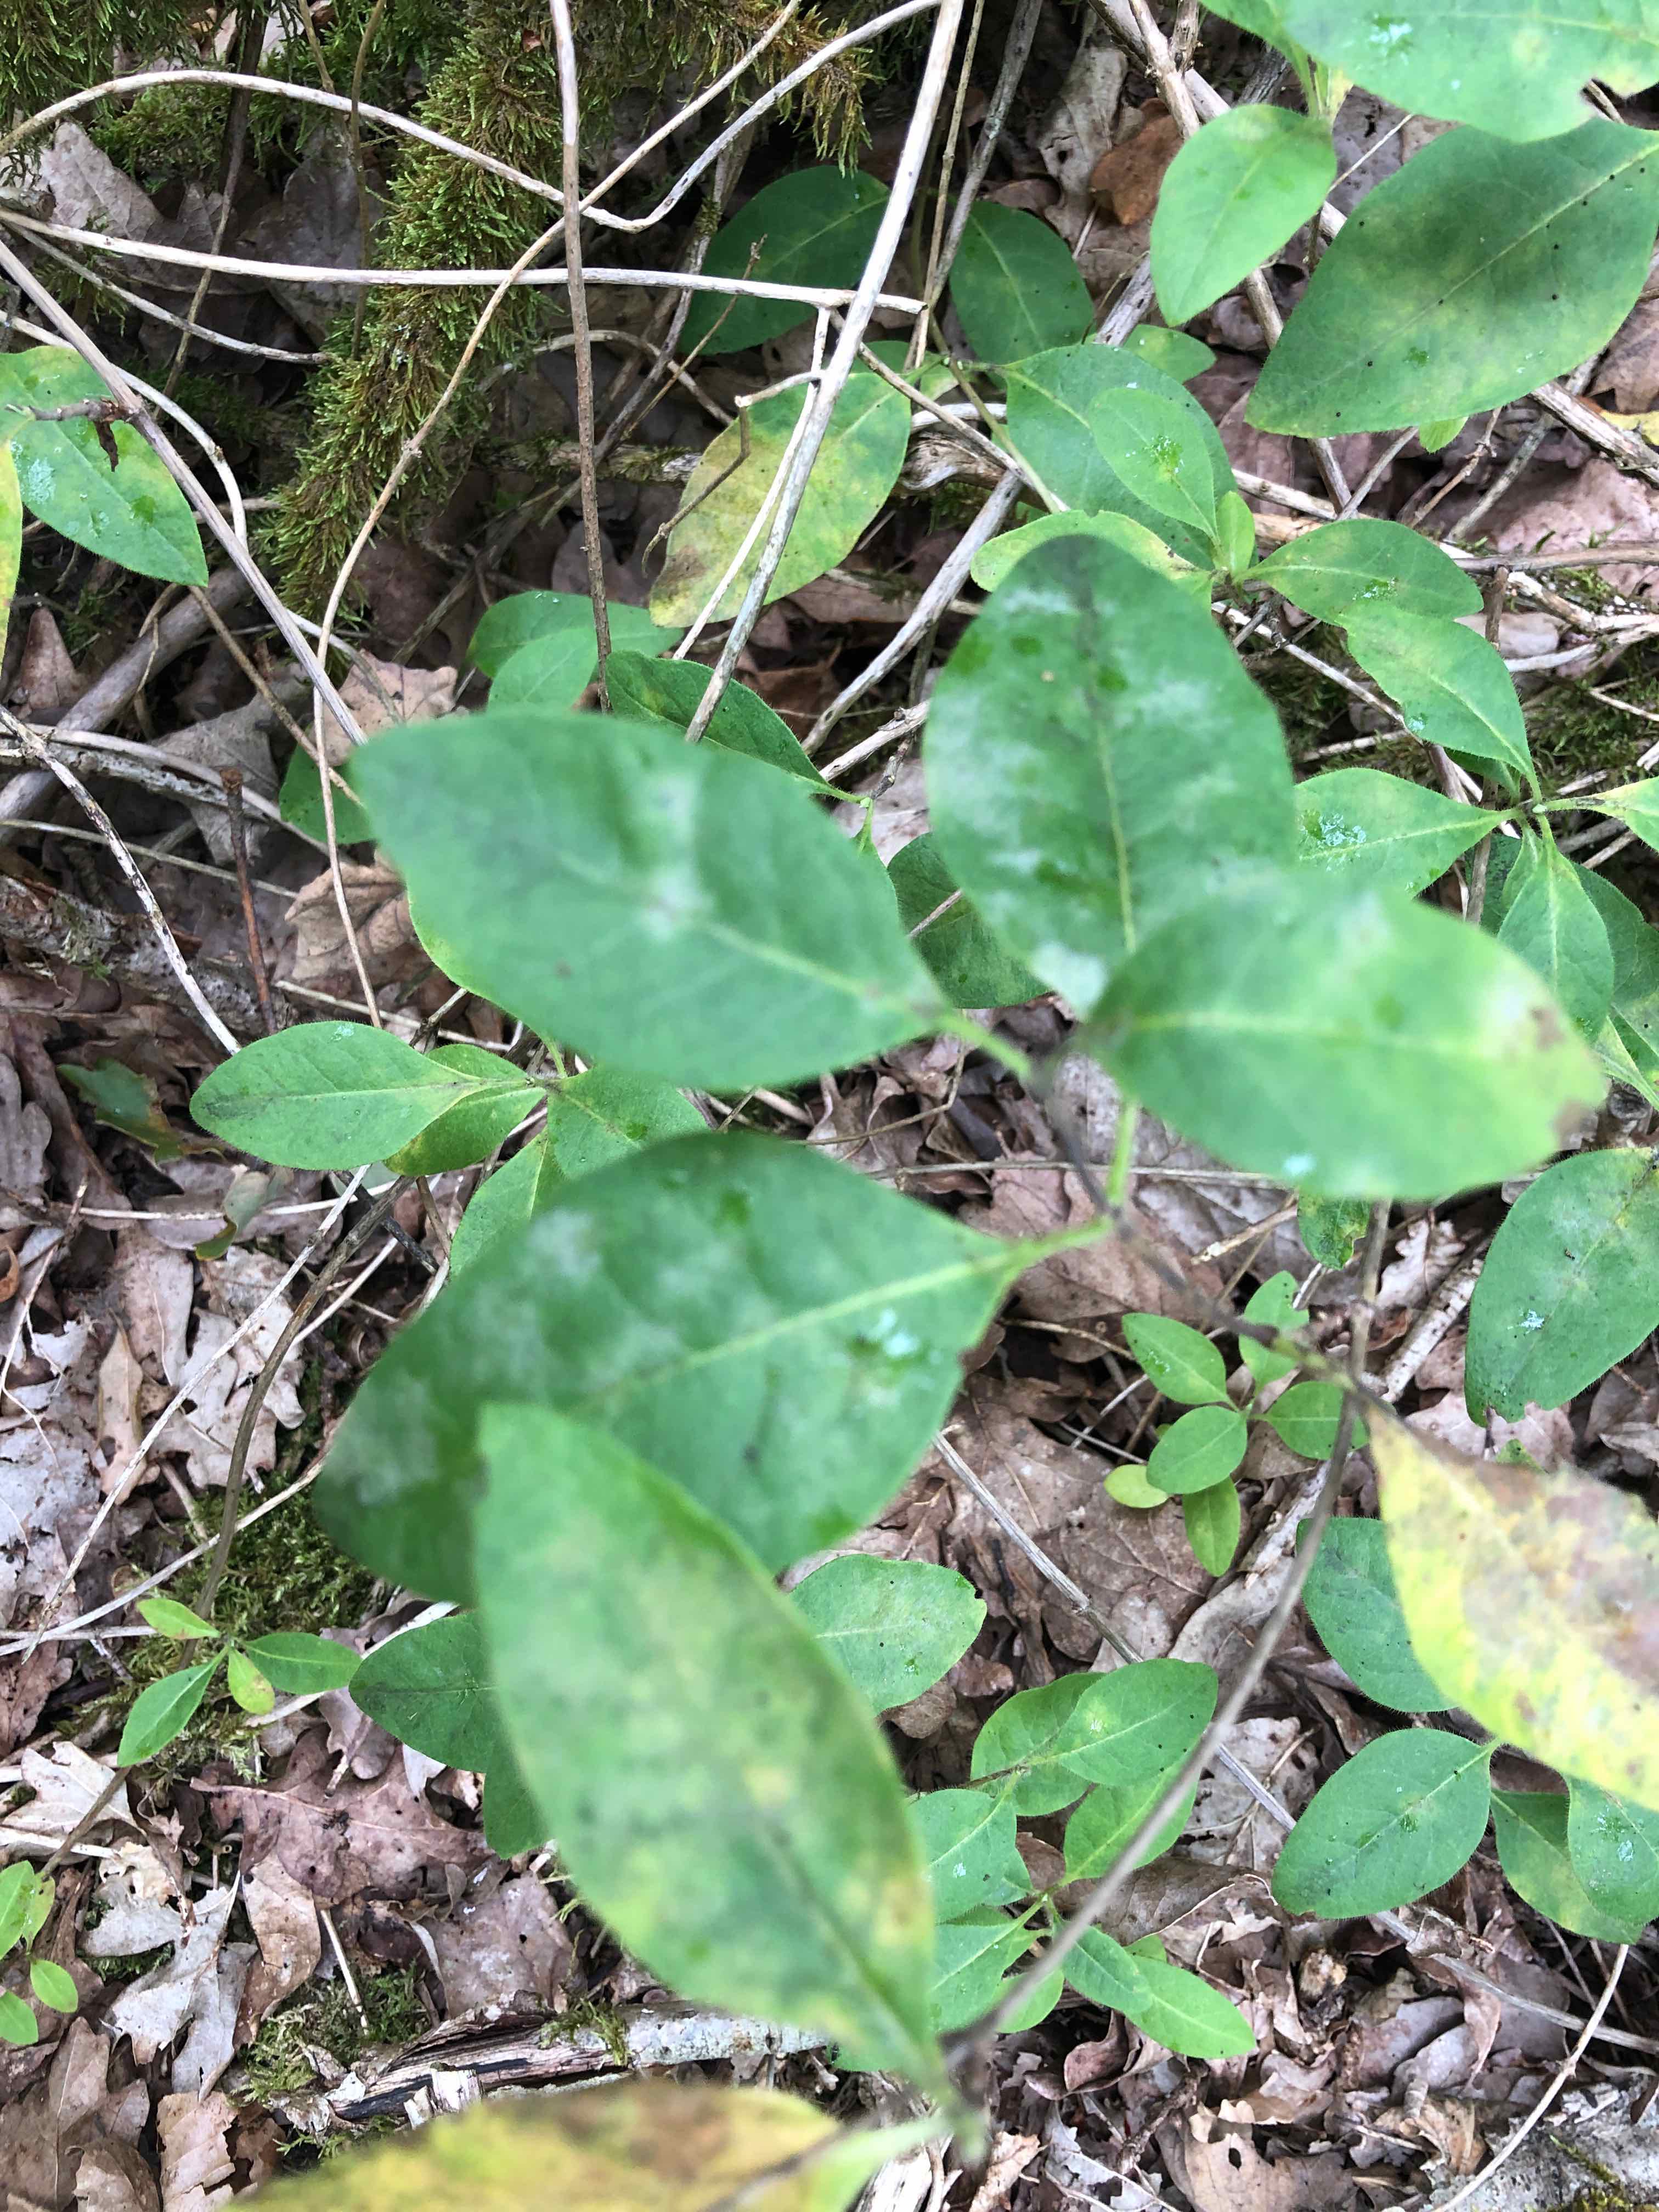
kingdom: Fungi
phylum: Ascomycota
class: Leotiomycetes
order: Helotiales
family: Erysiphaceae
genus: Erysiphe
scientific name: Erysiphe lonicerae
